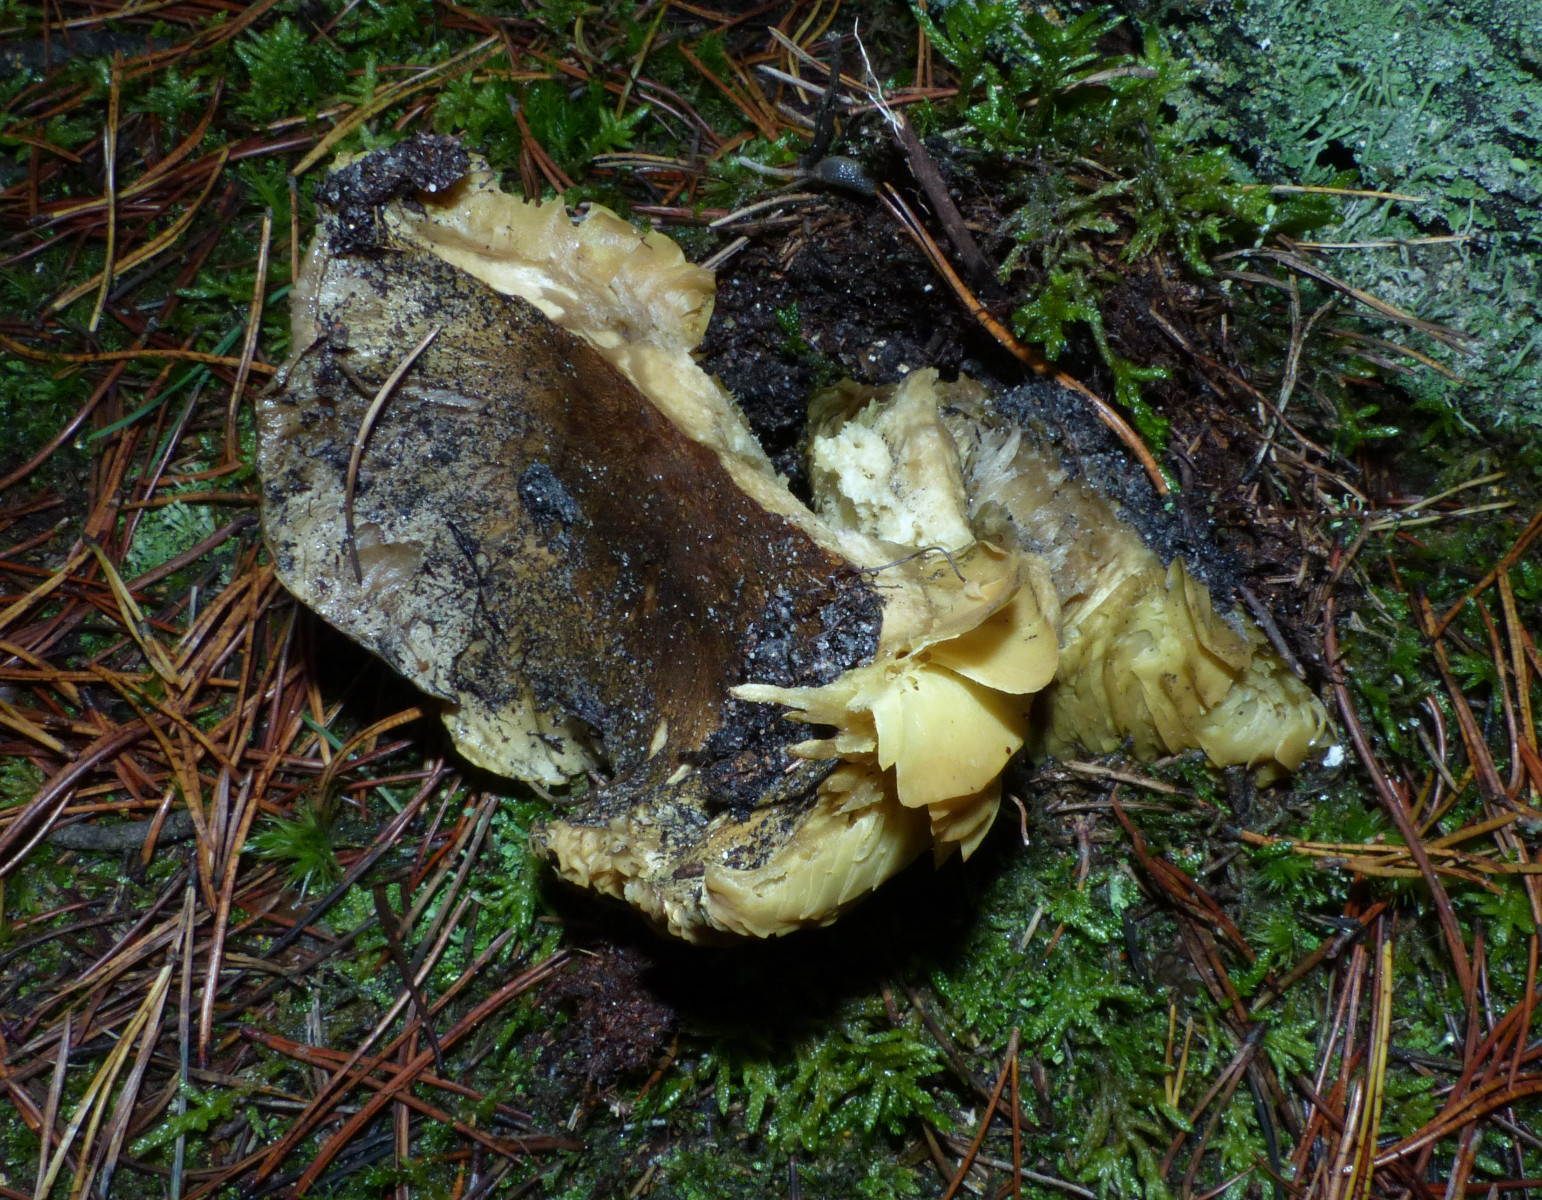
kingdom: Fungi
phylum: Basidiomycota
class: Agaricomycetes
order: Agaricales
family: Tricholomataceae
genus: Tricholoma
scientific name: Tricholoma equestre
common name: ægte ridderhat
